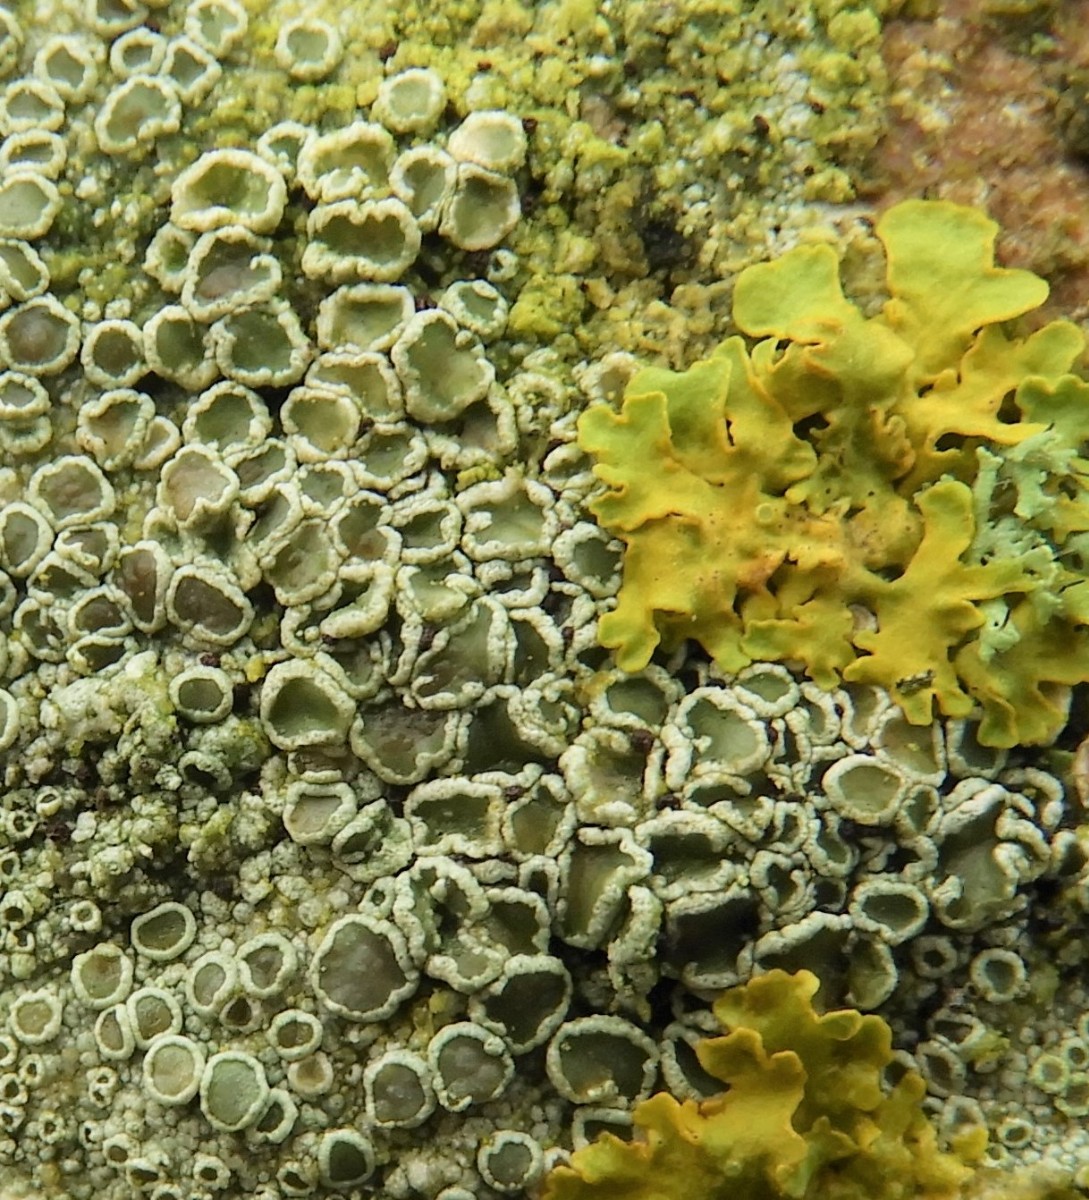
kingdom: Fungi
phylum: Ascomycota
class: Lecanoromycetes
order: Lecanorales
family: Lecanoraceae
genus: Lecanora
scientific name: Lecanora
